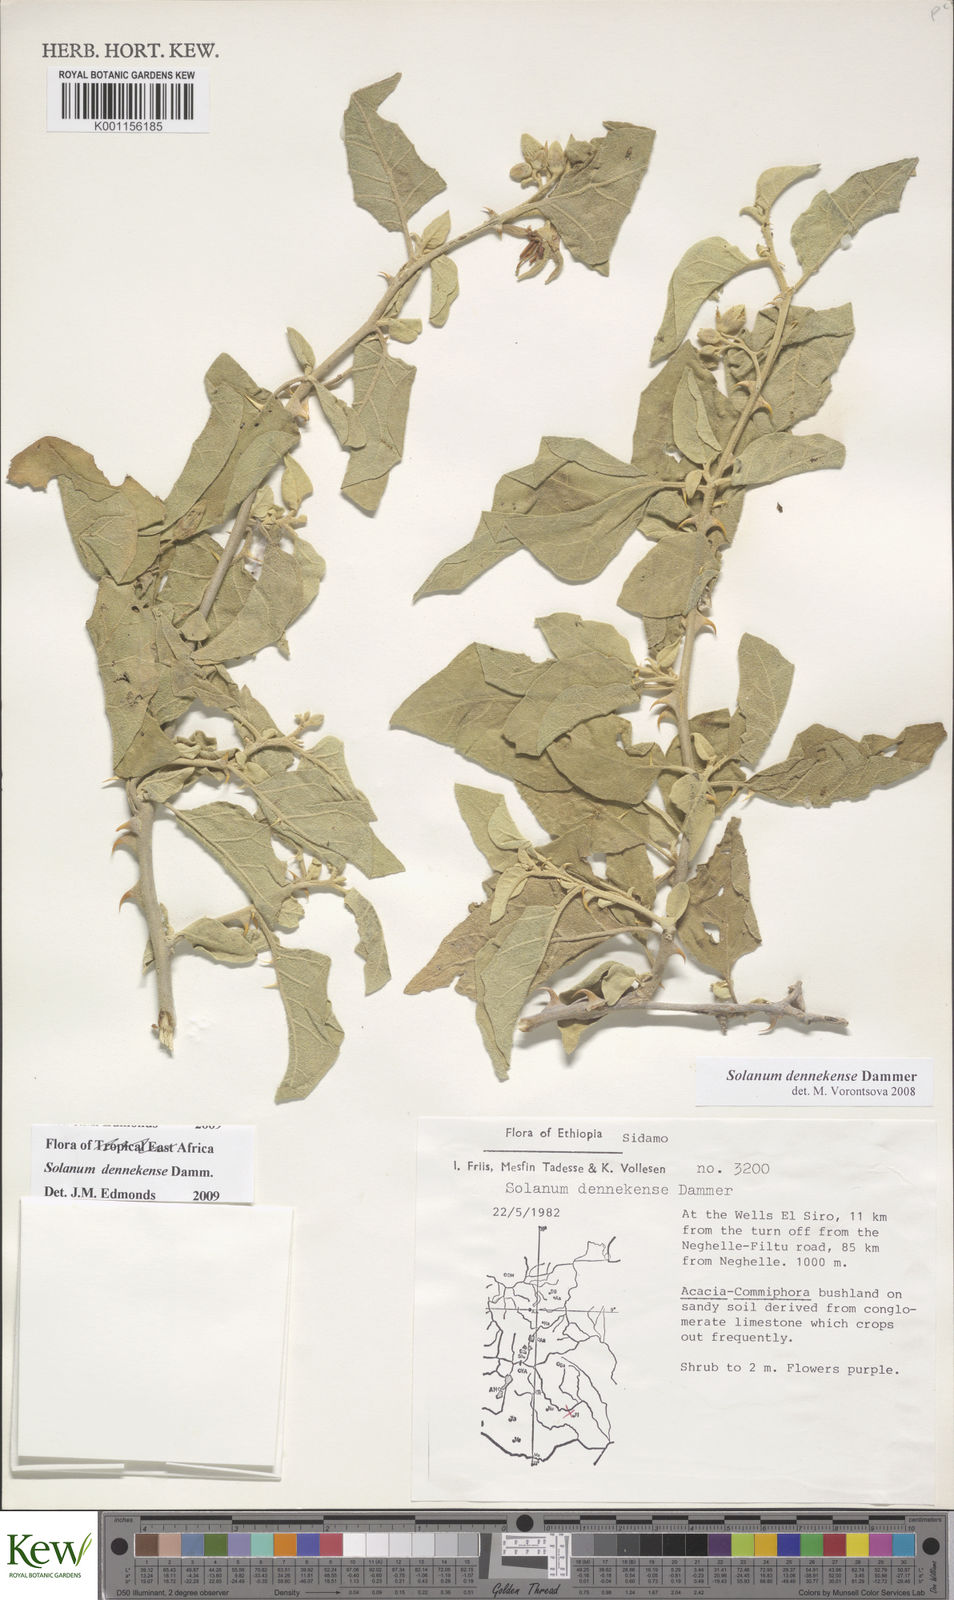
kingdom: Plantae
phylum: Tracheophyta
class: Magnoliopsida
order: Solanales
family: Solanaceae
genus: Solanum
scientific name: Solanum dennekense
